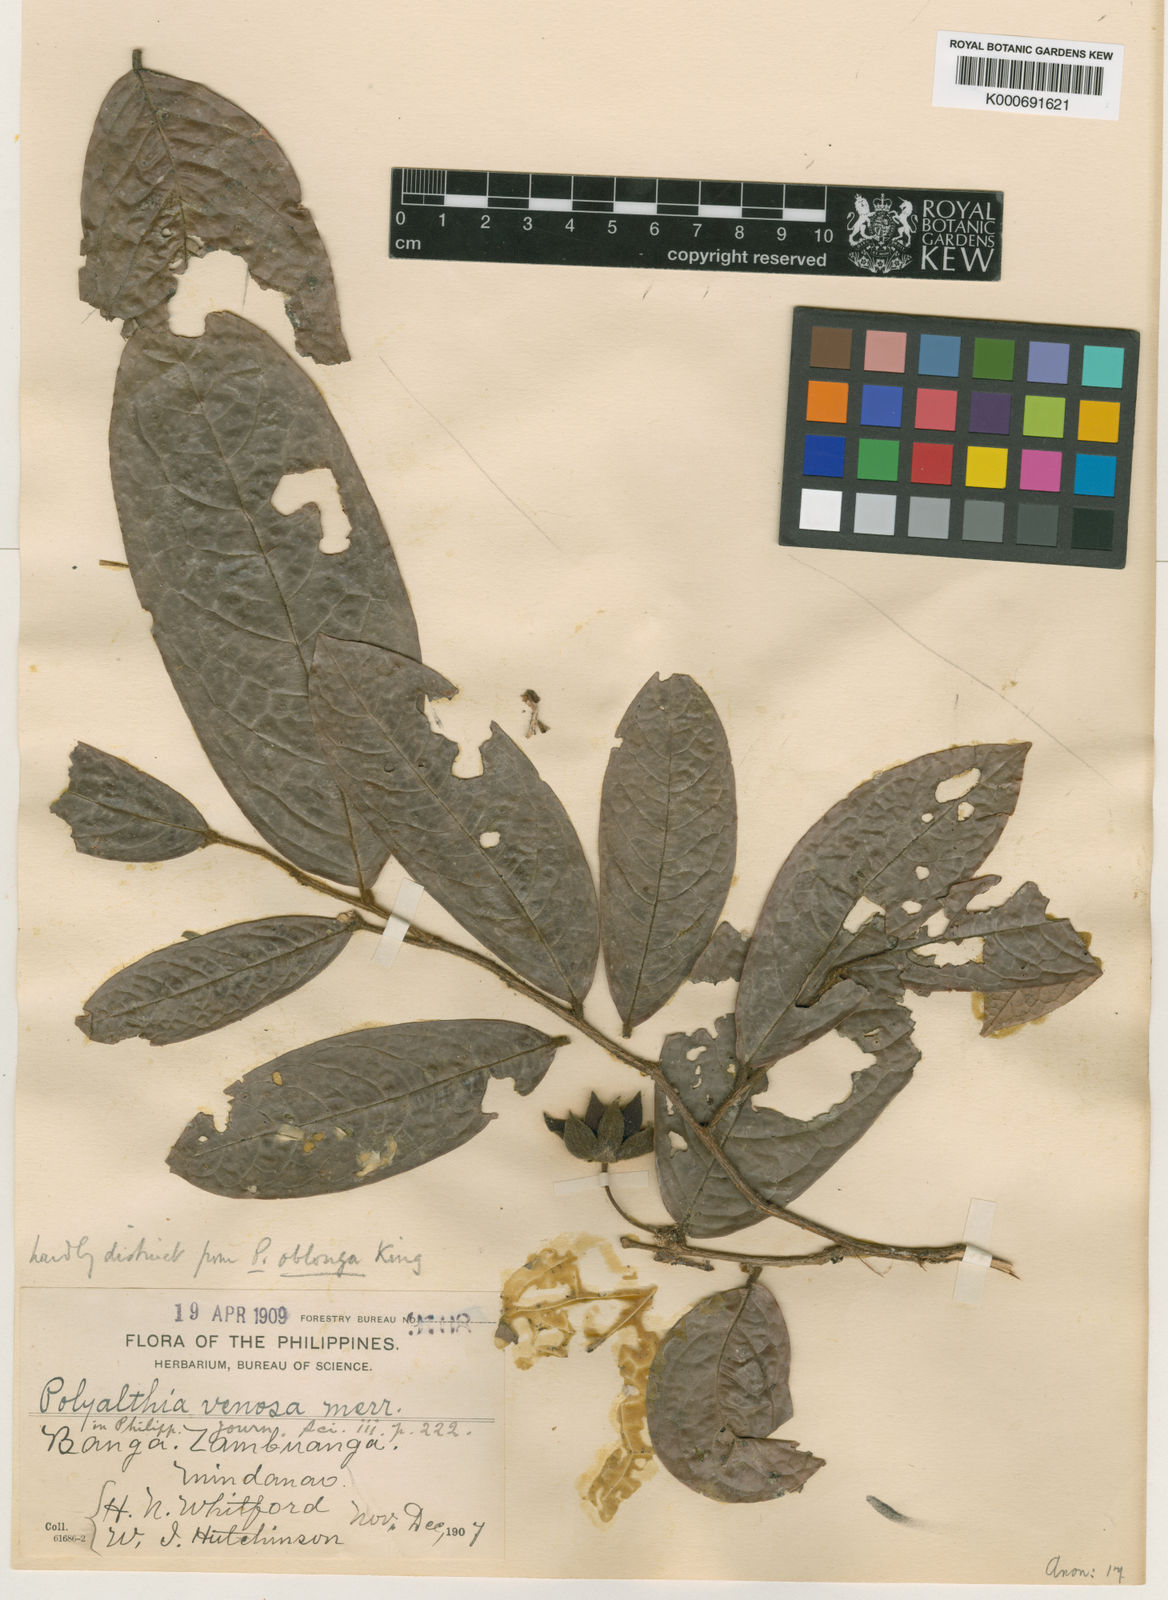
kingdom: Plantae
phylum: Tracheophyta
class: Magnoliopsida
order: Magnoliales
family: Annonaceae
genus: Polyalthia
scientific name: Polyalthia venosa
